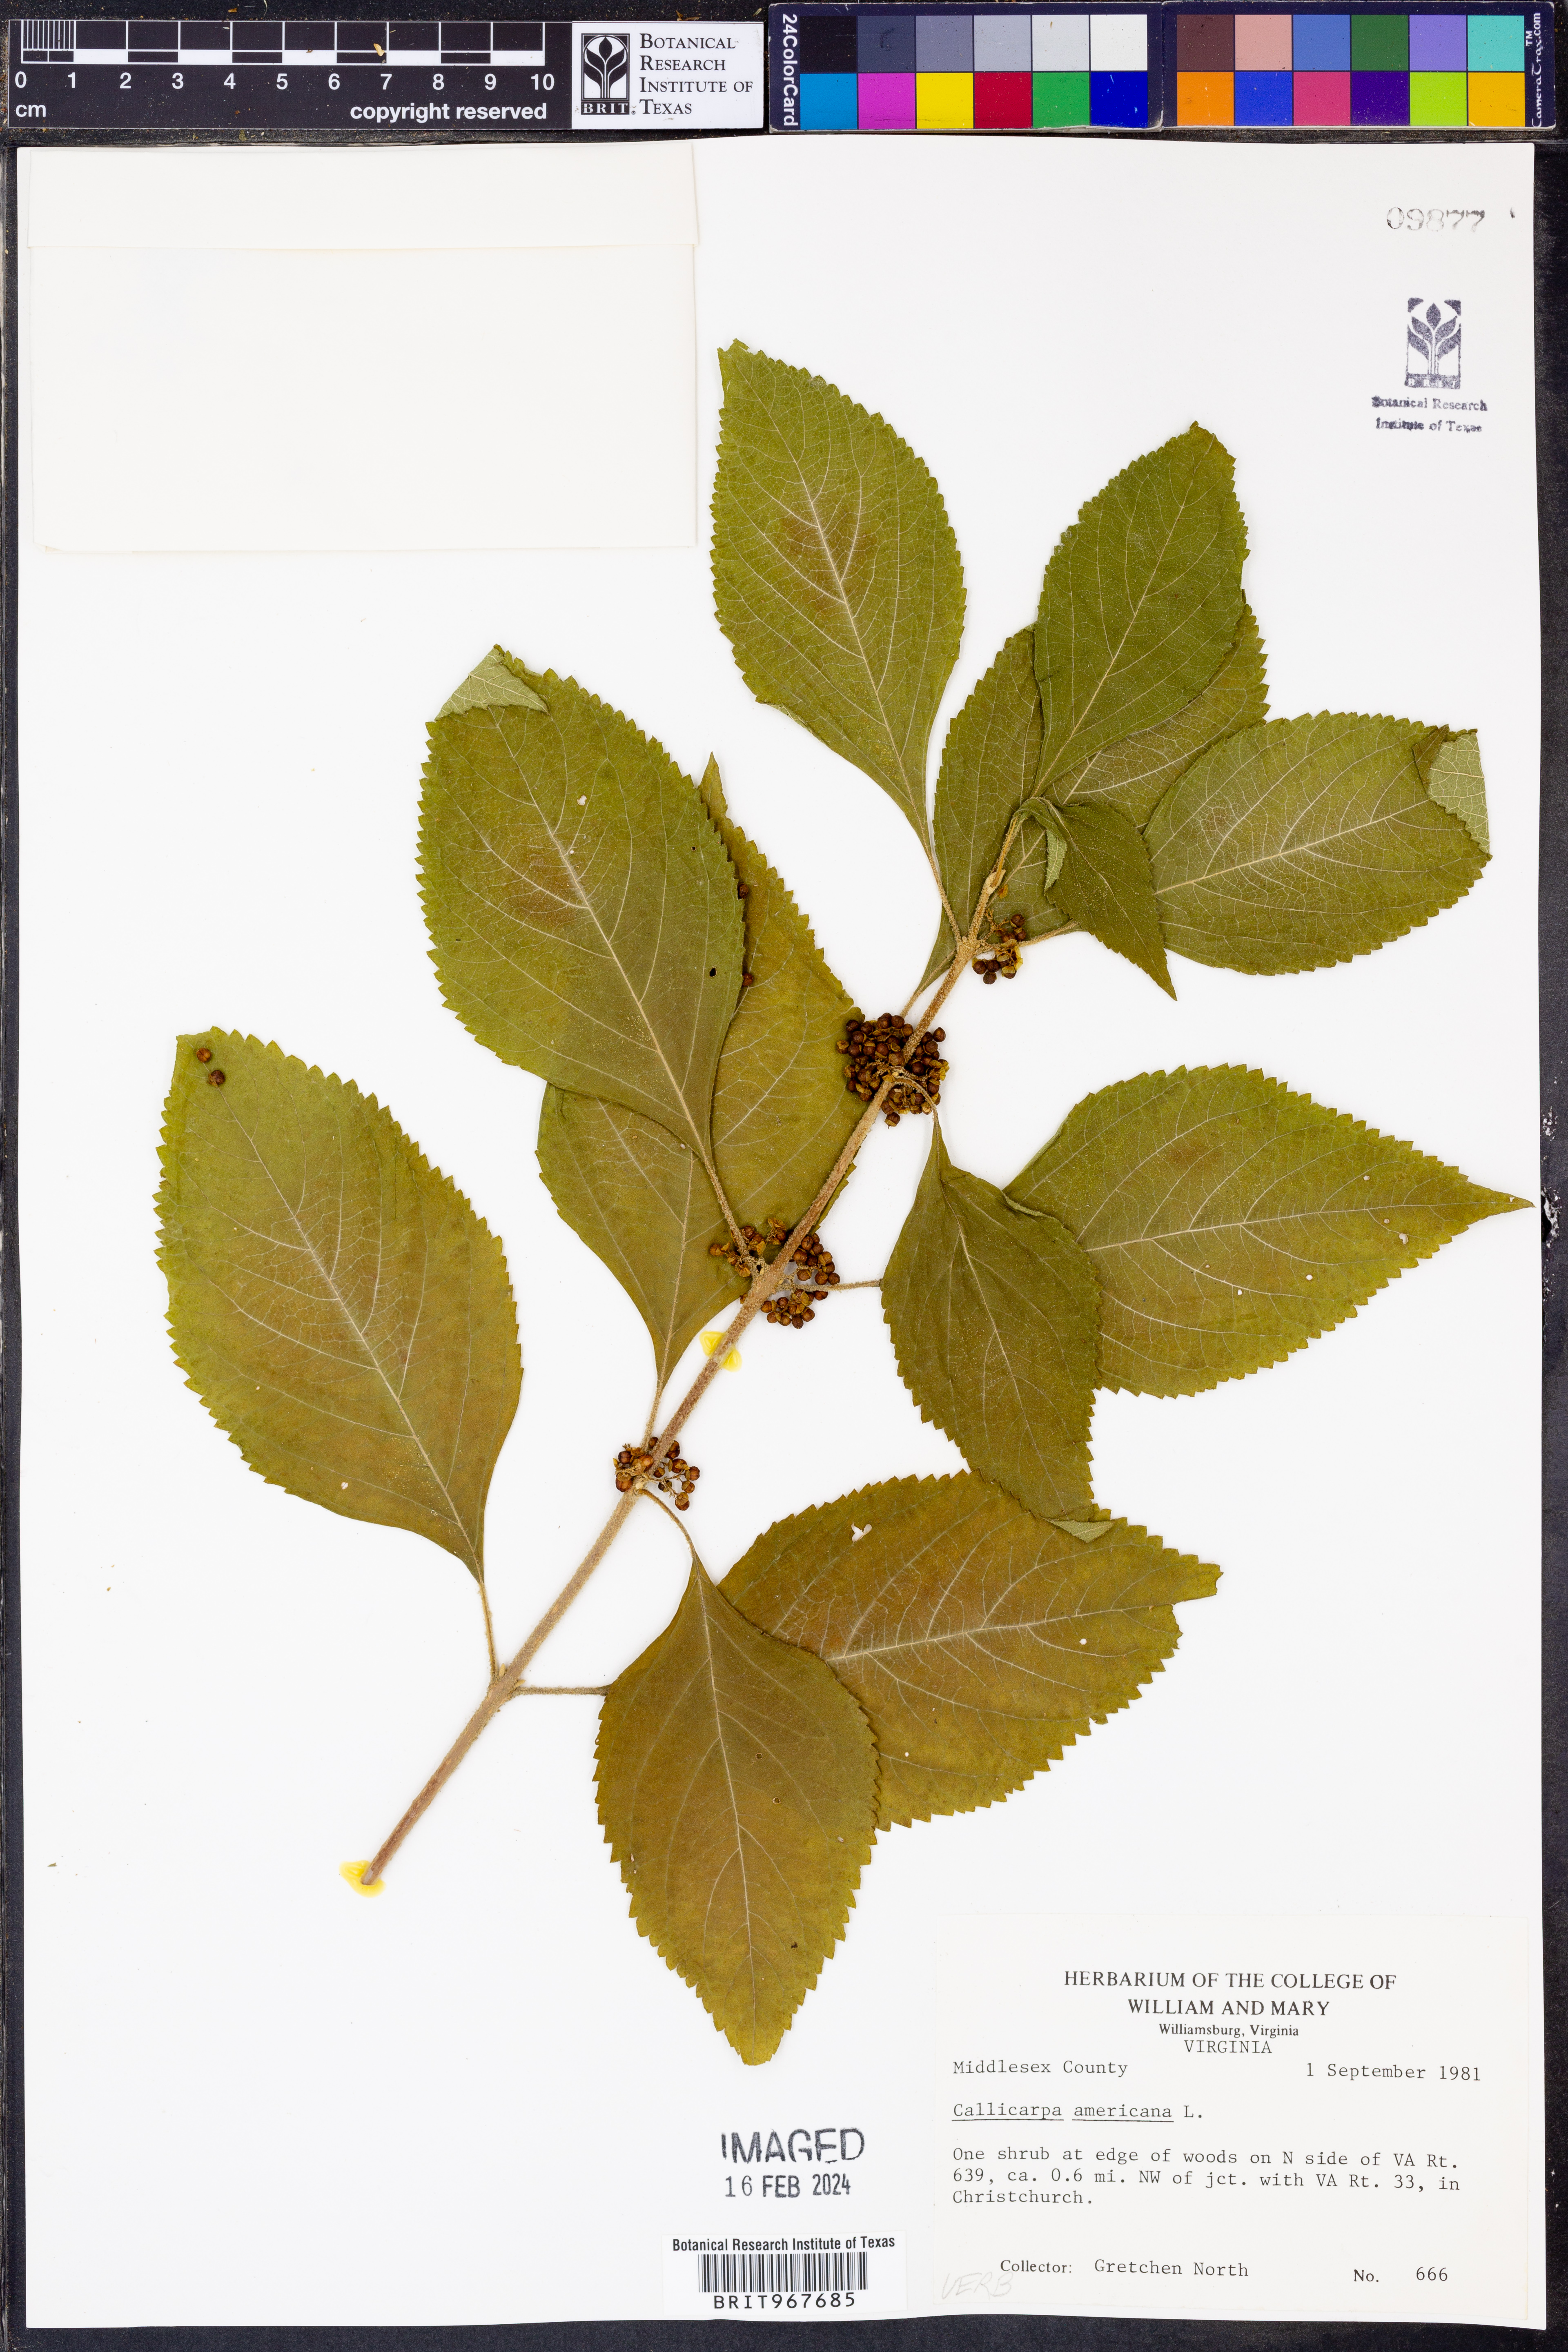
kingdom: Plantae
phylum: Tracheophyta
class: Magnoliopsida
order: Lamiales
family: Lamiaceae
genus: Callicarpa
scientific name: Callicarpa americana
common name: American beautyberry
